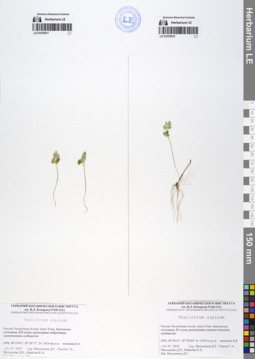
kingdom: Plantae
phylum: Tracheophyta
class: Magnoliopsida
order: Ranunculales
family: Ranunculaceae
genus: Thalictrum
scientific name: Thalictrum alpinum
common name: Alpine meadow-rue
